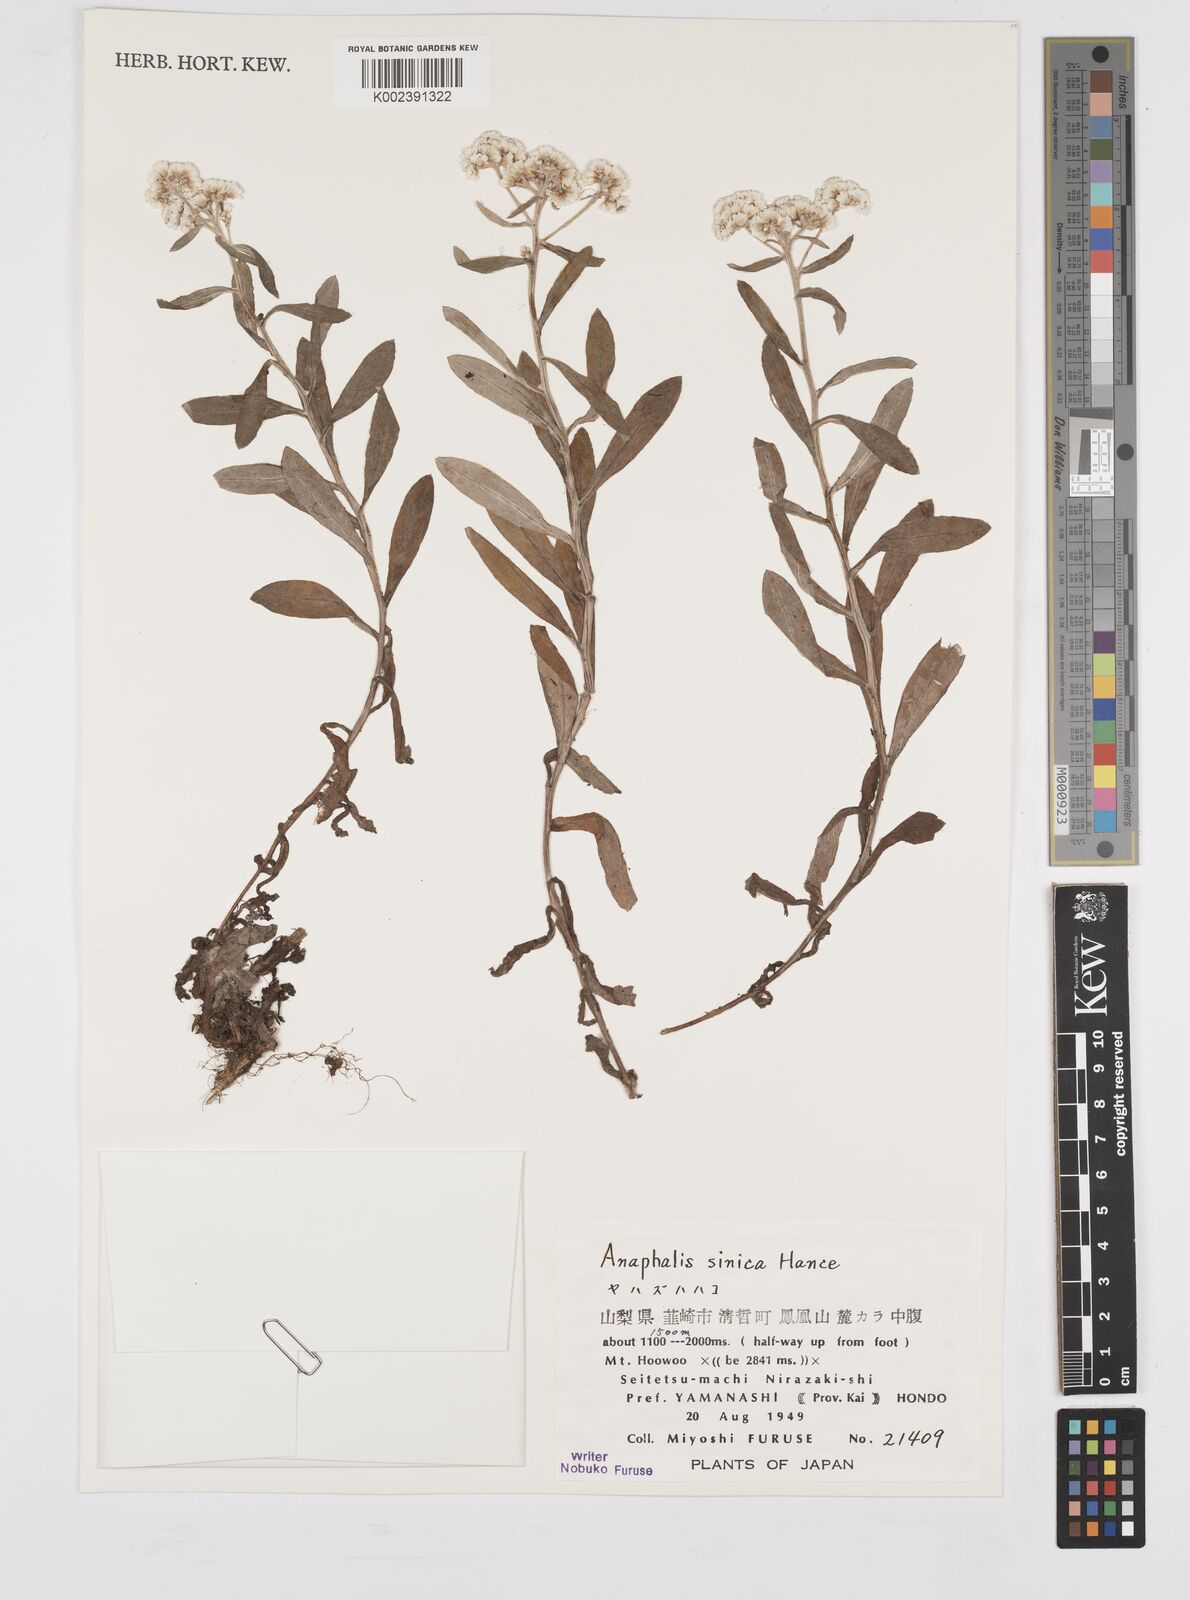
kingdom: Plantae
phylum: Tracheophyta
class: Magnoliopsida
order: Asterales
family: Asteraceae
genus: Anaphalis
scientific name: Anaphalis sinica
